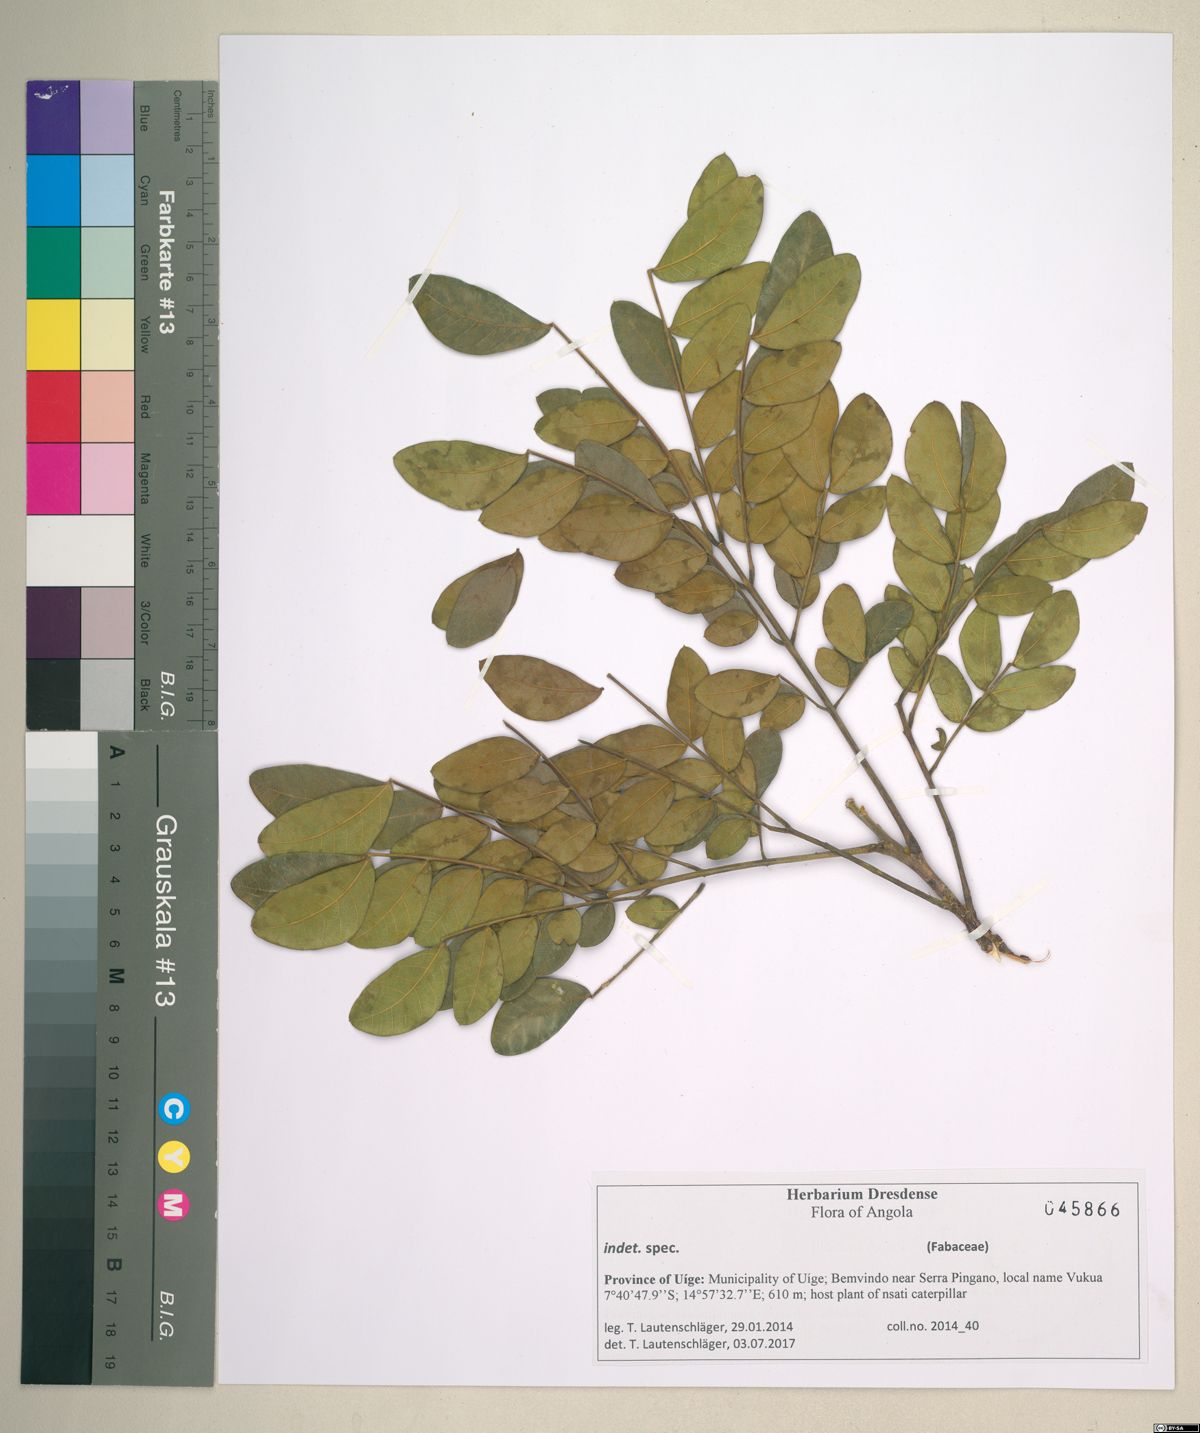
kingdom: Plantae
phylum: Tracheophyta
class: Magnoliopsida
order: Fabales
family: Fabaceae
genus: Albizia
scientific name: Albizia adianthifolia
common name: West african albizia
